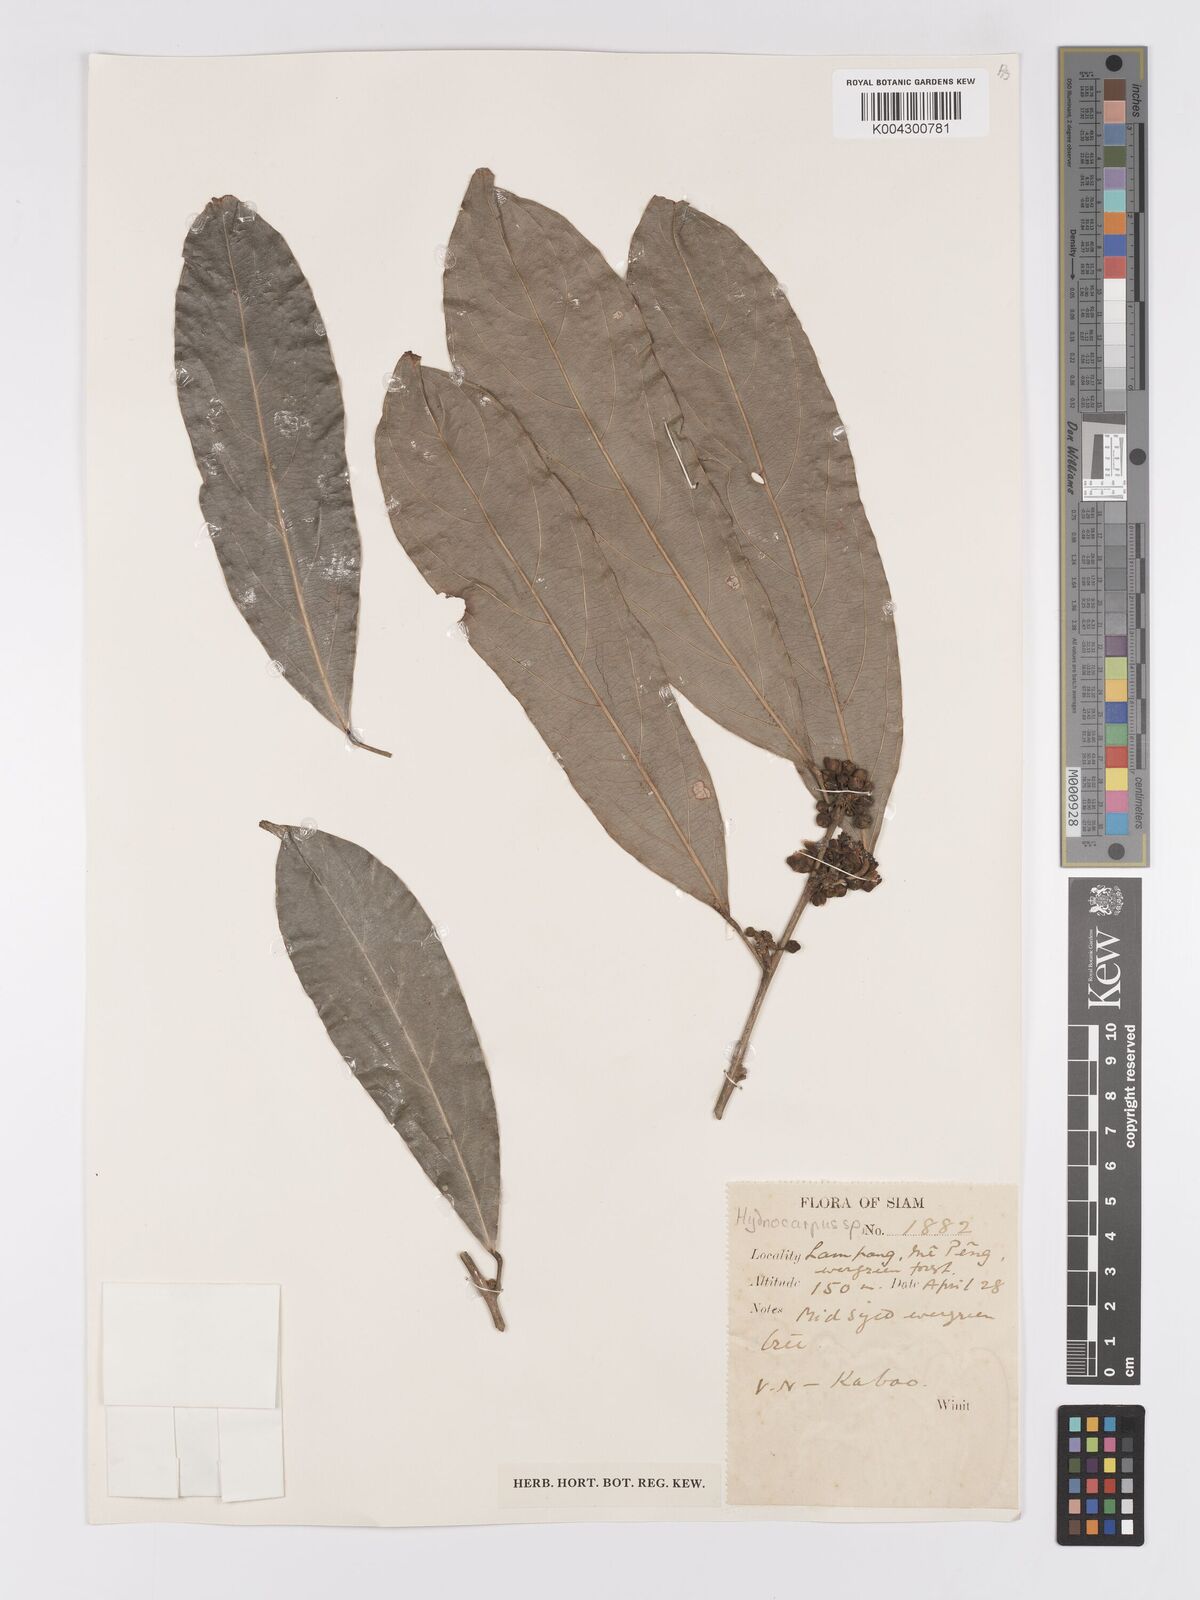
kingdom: Plantae
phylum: Tracheophyta
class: Magnoliopsida
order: Malpighiales
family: Achariaceae
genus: Hydnocarpus
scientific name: Hydnocarpus
